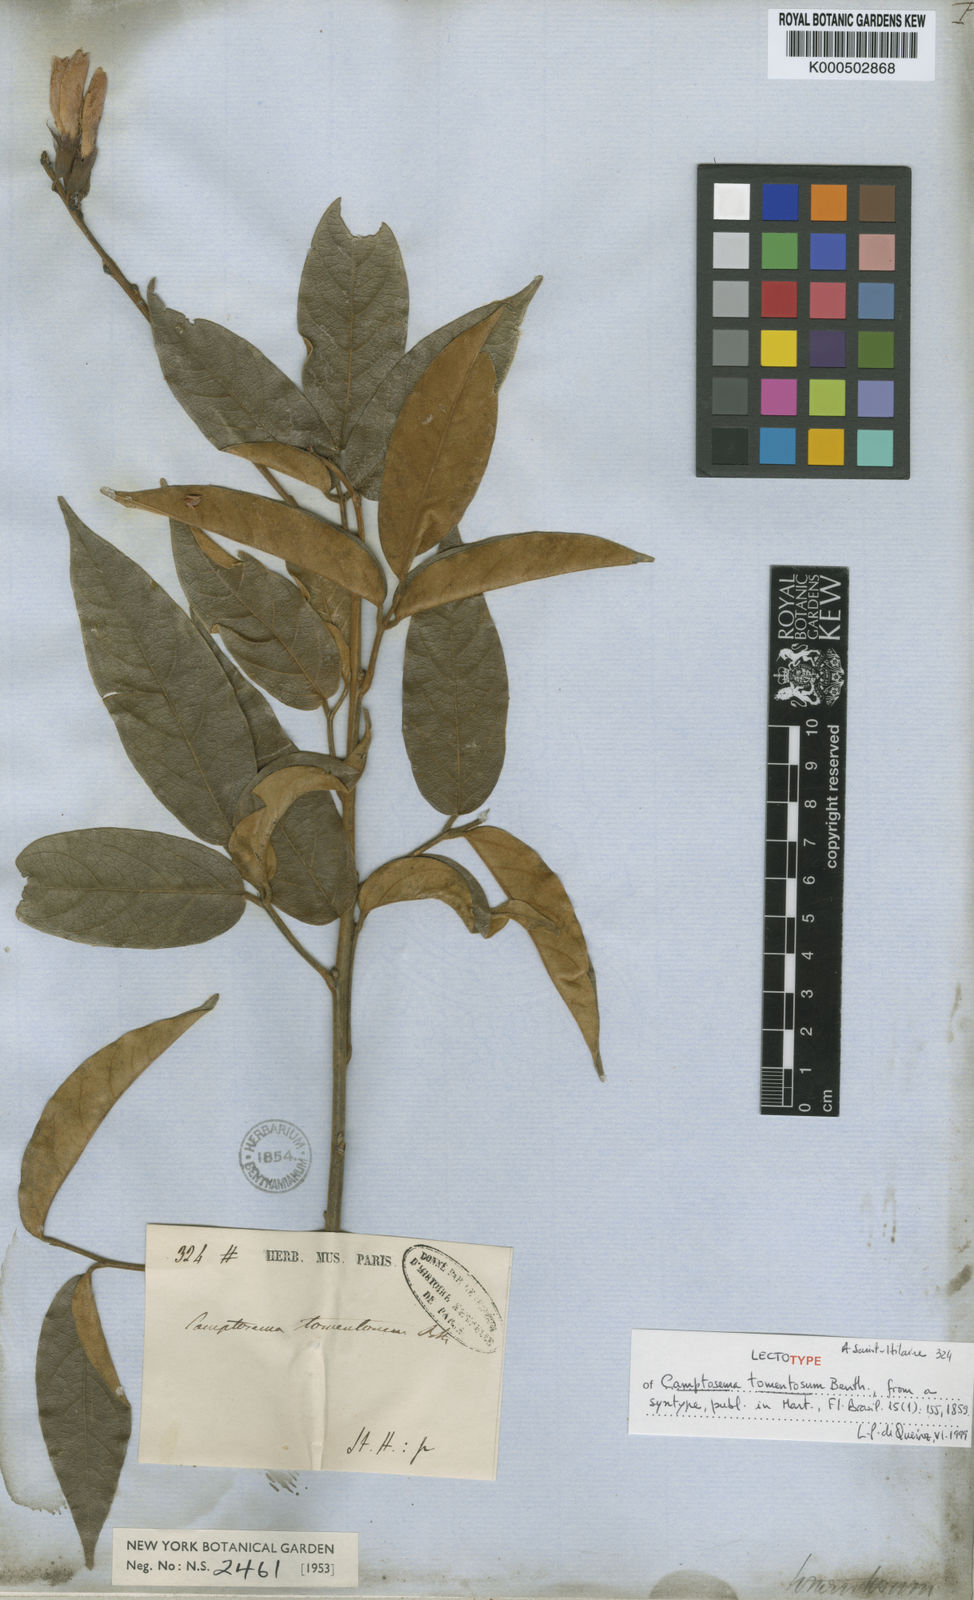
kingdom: Plantae
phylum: Tracheophyta
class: Magnoliopsida
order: Fabales
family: Fabaceae
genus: Camptosema
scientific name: Camptosema tomentosum
